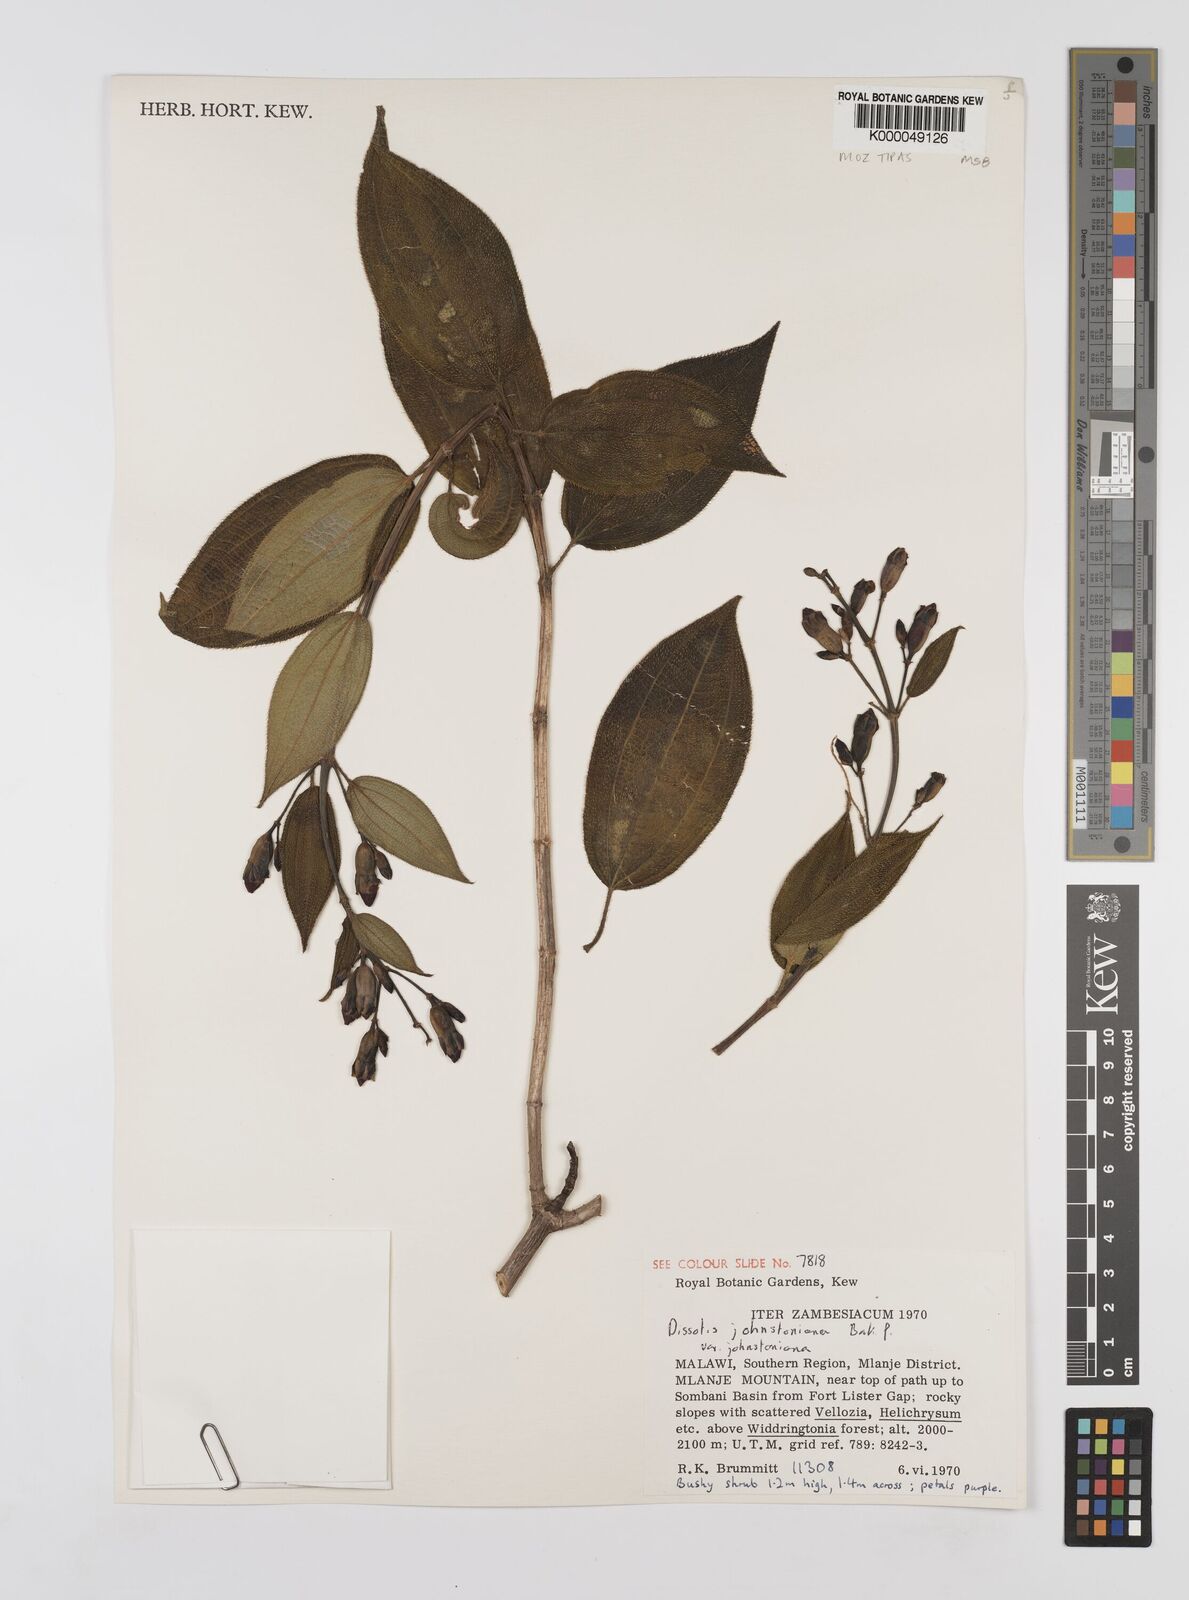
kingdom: Plantae
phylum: Tracheophyta
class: Magnoliopsida
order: Myrtales
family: Melastomataceae
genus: Dissotidendron
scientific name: Dissotidendron johnstonianum
